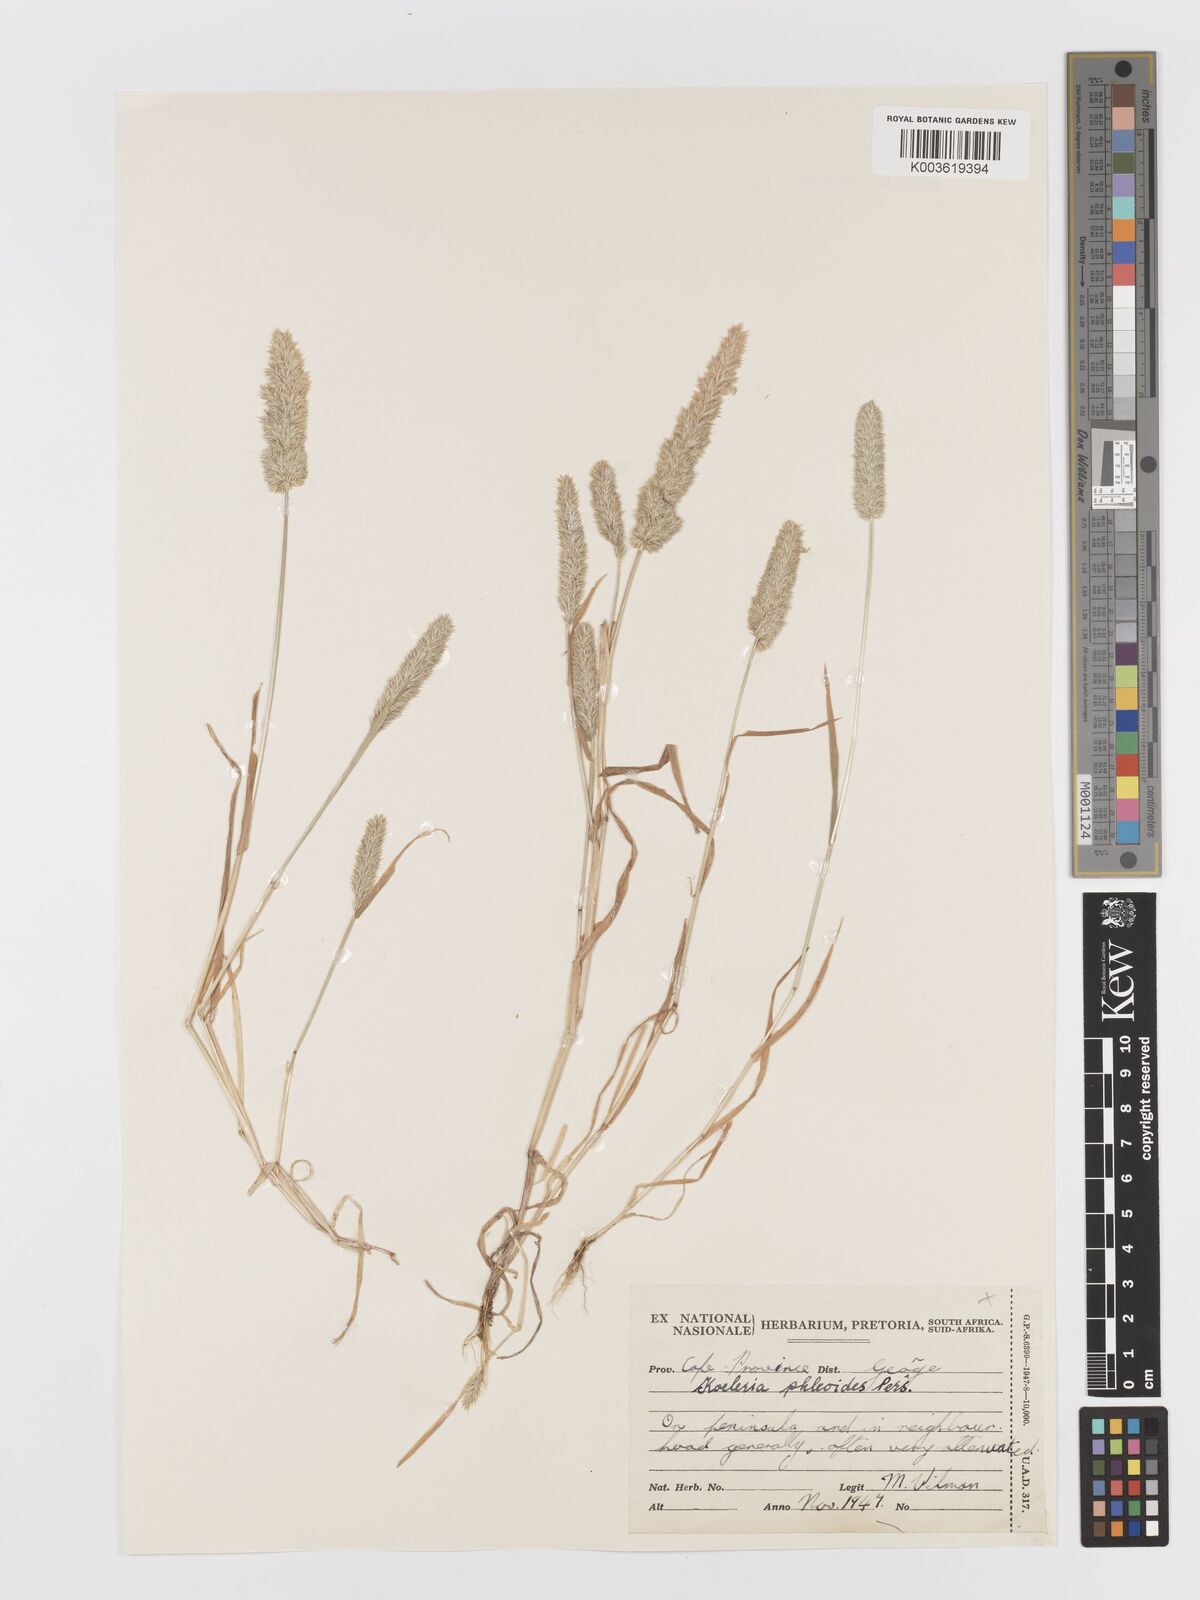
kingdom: Plantae
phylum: Tracheophyta
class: Liliopsida
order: Poales
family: Poaceae
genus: Rostraria
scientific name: Rostraria cristata
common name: Mediterranean hair-grass
